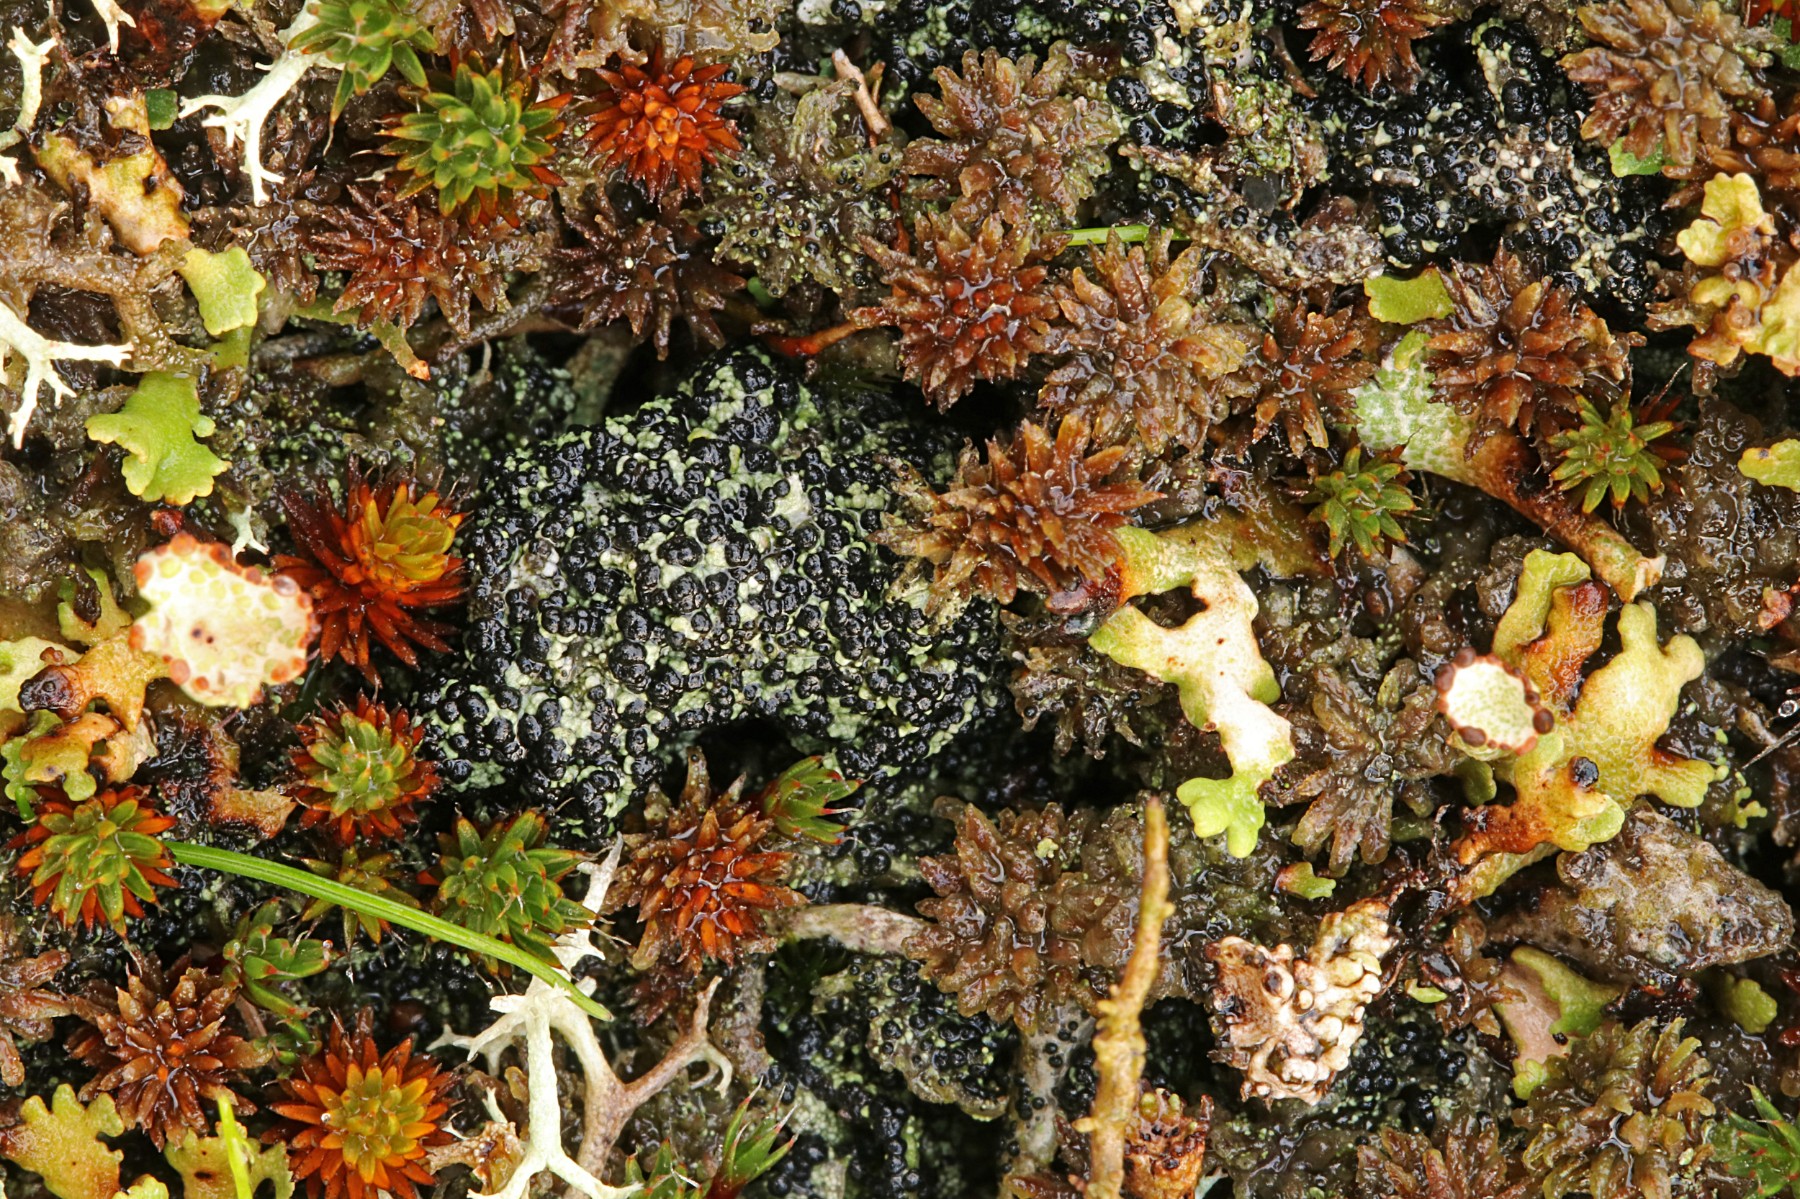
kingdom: Fungi
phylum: Ascomycota
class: Lecanoromycetes
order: Lecanorales
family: Byssolomataceae
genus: Micarea
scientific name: Micarea lignaria
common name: tørve-knaplav
